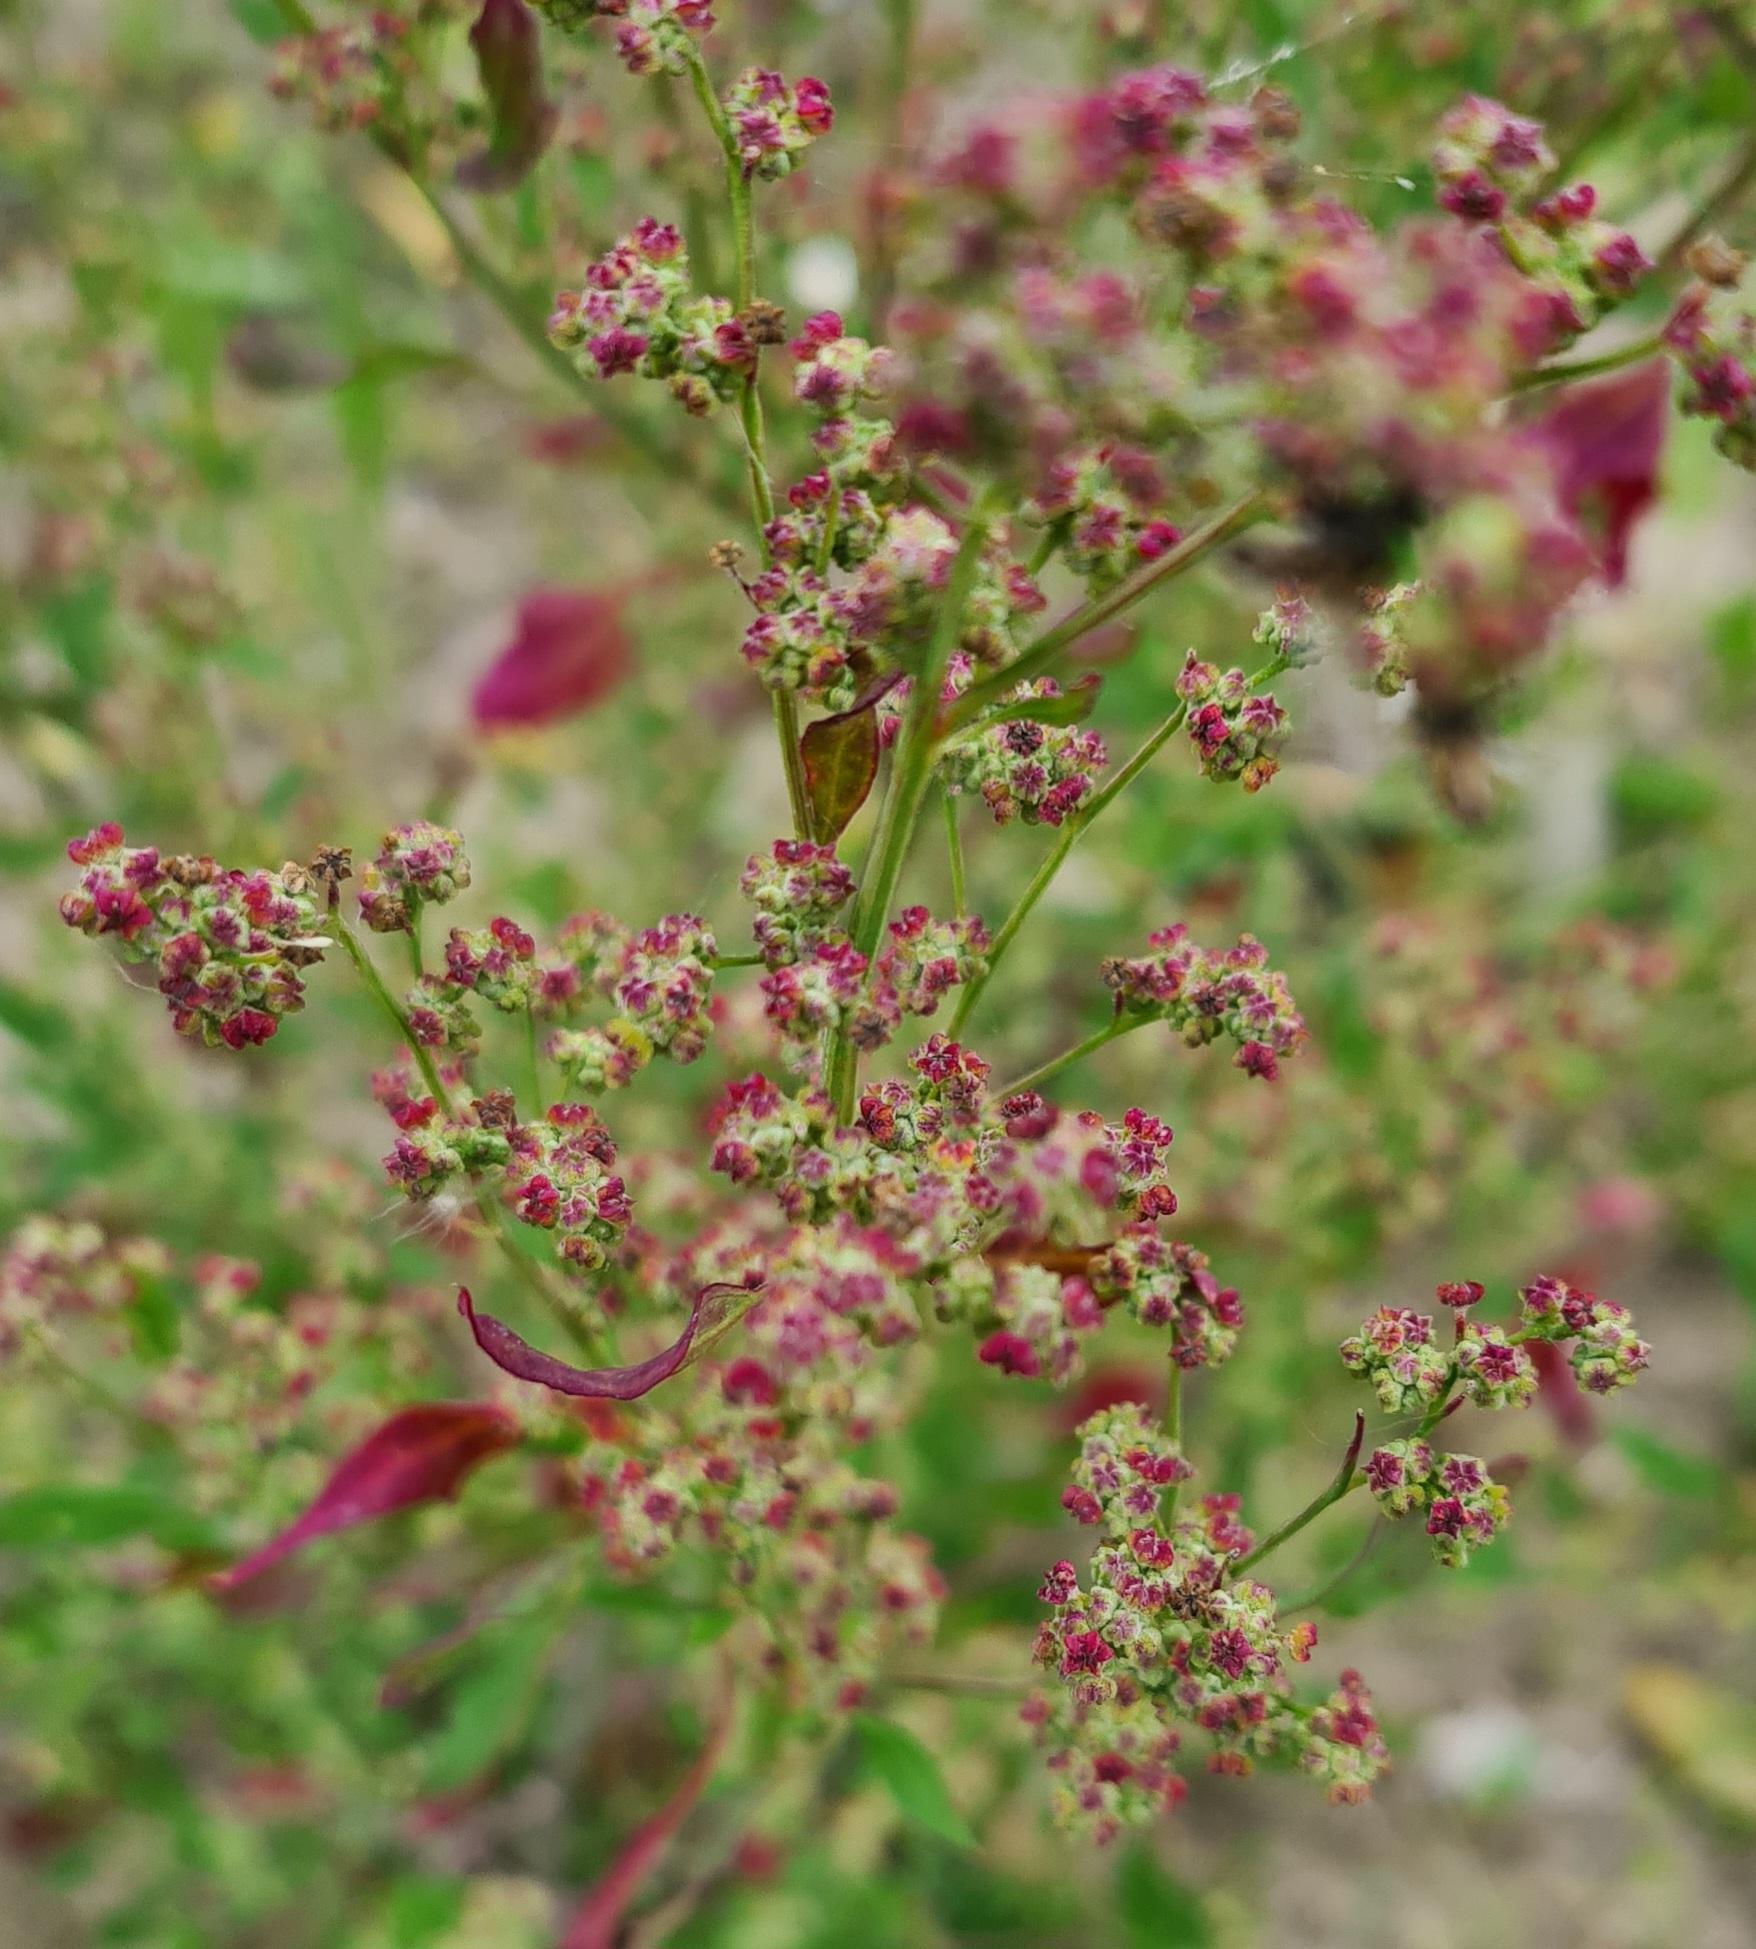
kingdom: Plantae
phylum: Tracheophyta
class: Magnoliopsida
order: Caryophyllales
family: Amaranthaceae
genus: Chenopodium
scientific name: Chenopodium album
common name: Hvidmelet gåsefod
